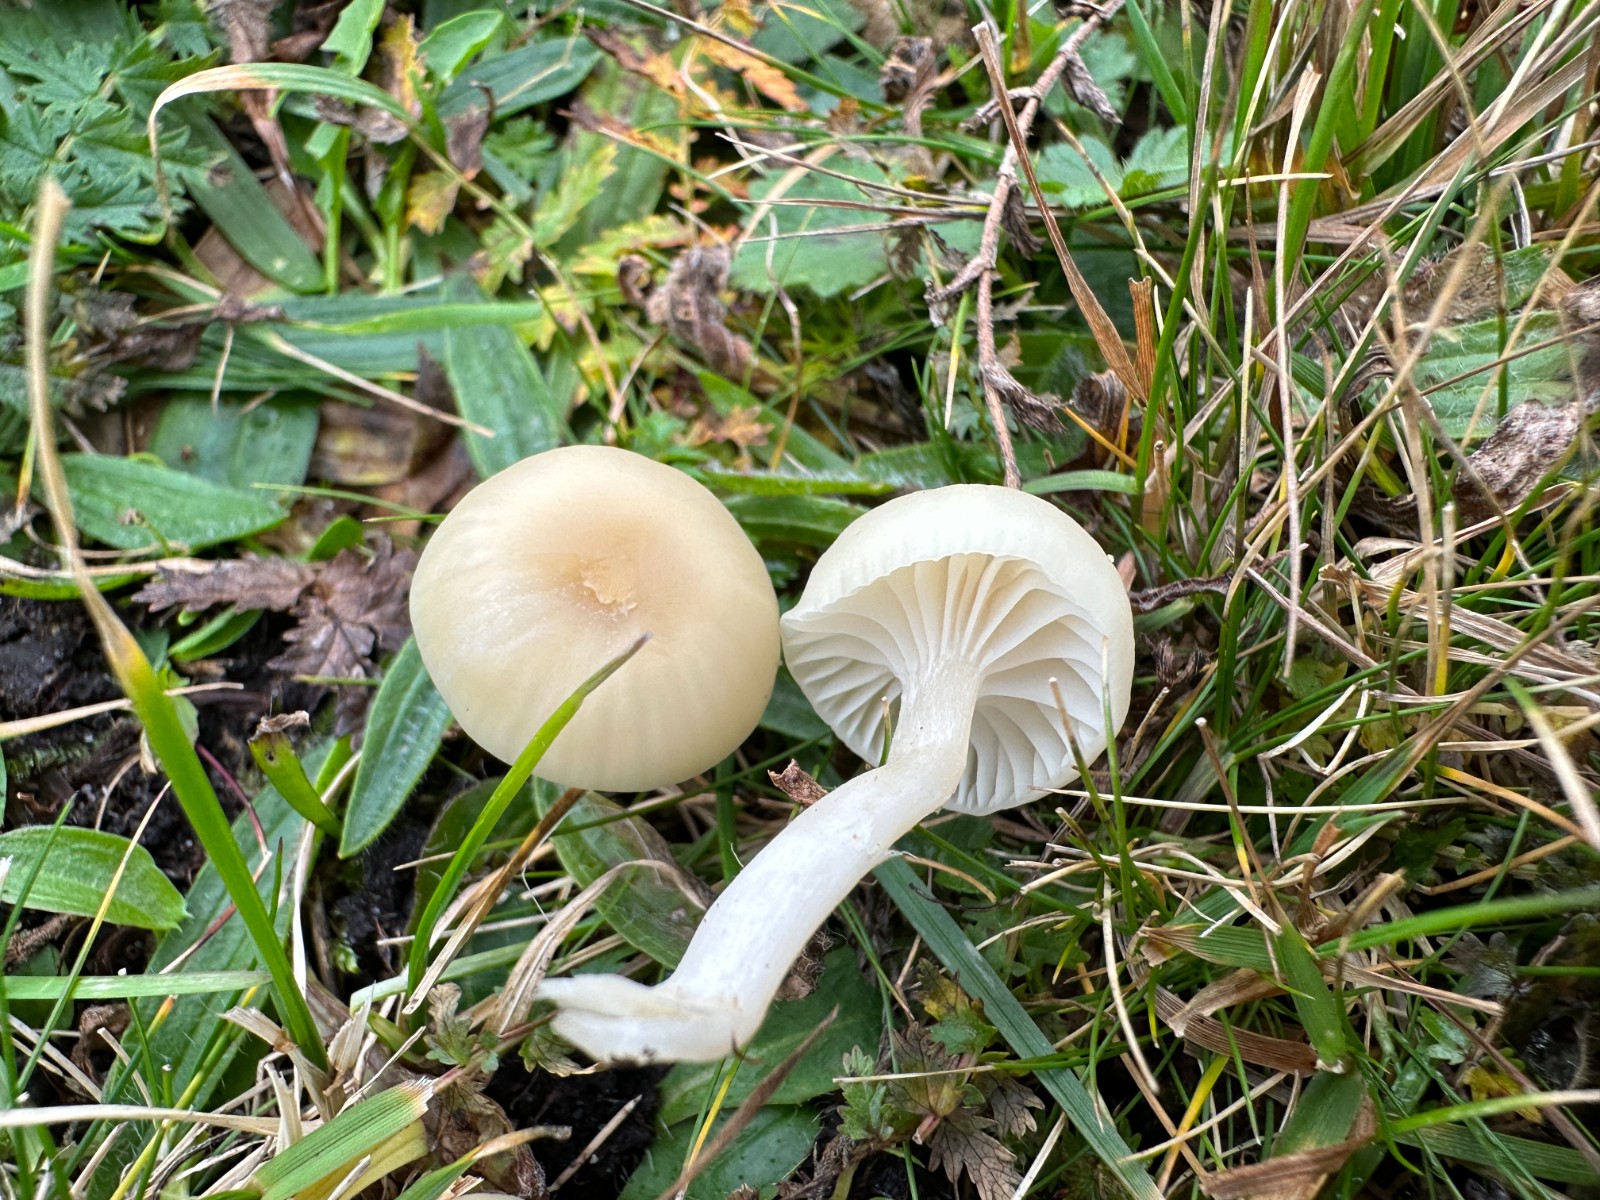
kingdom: Fungi
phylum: Basidiomycota
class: Agaricomycetes
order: Agaricales
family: Hygrophoraceae
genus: Cuphophyllus
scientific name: Cuphophyllus russocoriaceus
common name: ruslæder-vokshat
